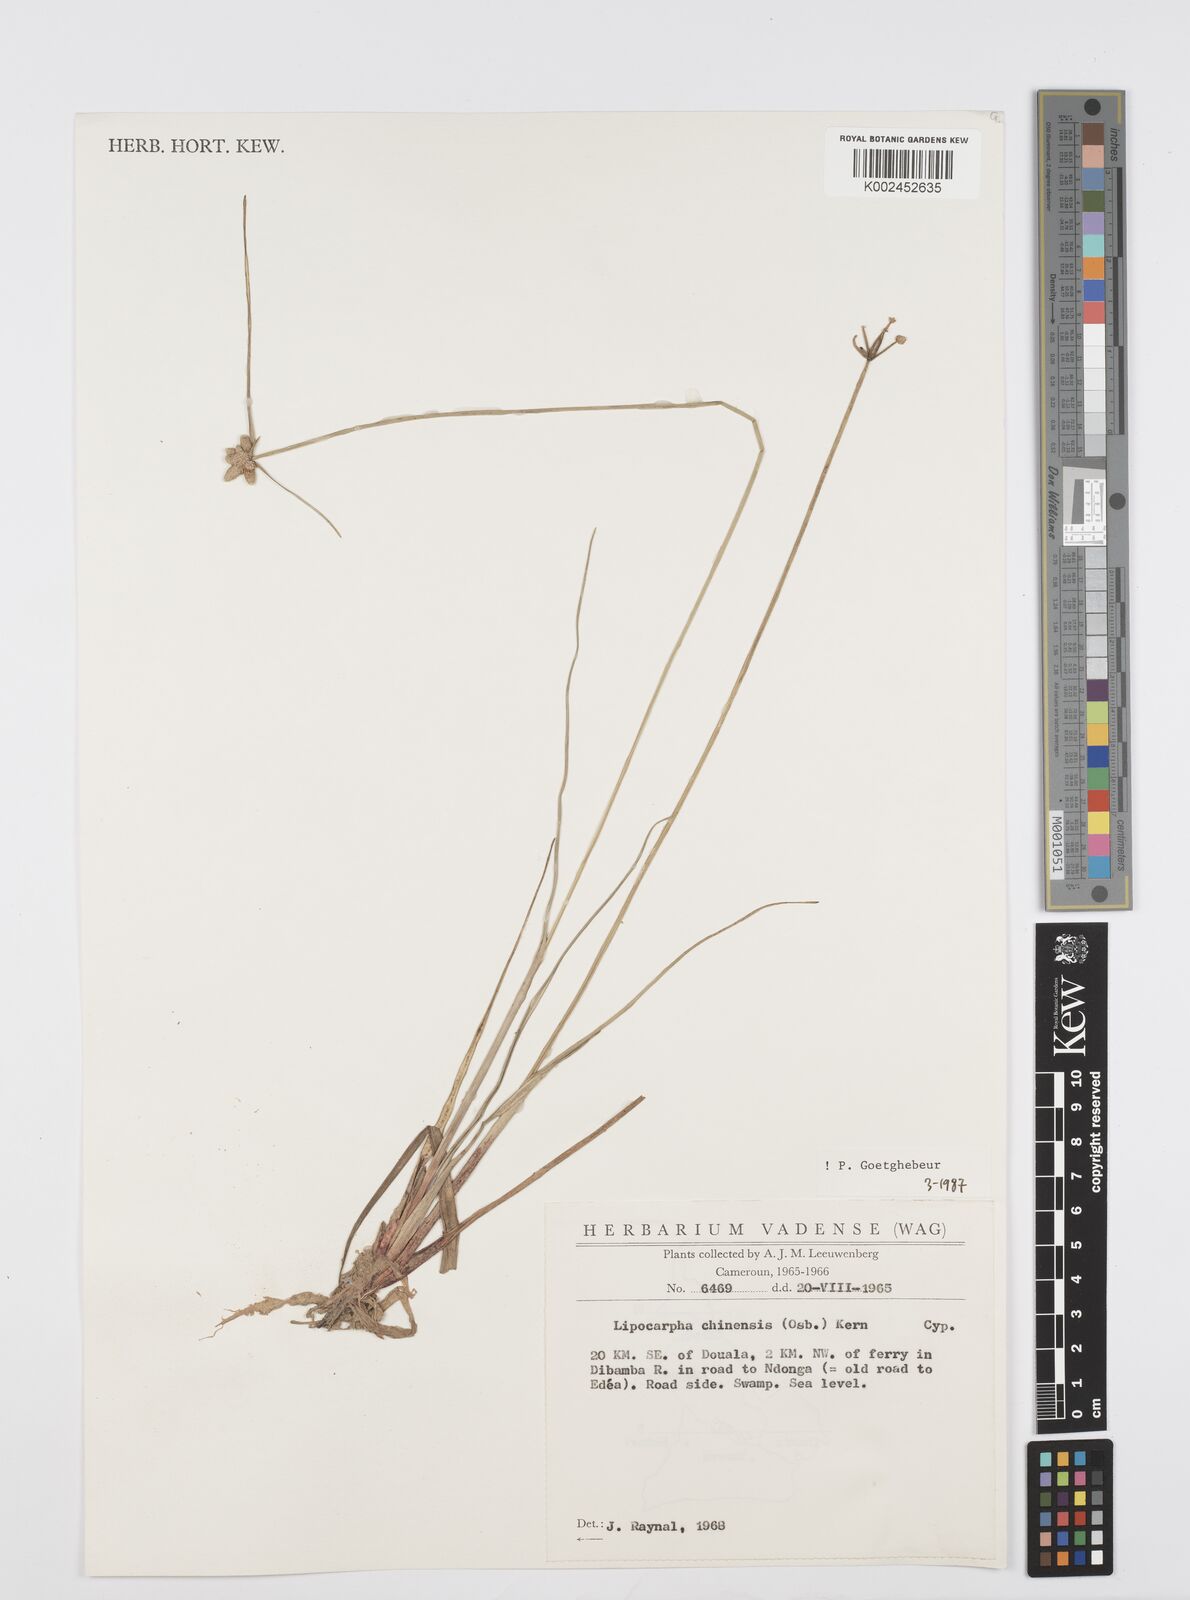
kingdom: Plantae
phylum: Tracheophyta
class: Liliopsida
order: Poales
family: Cyperaceae
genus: Cyperus
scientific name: Cyperus albescens
